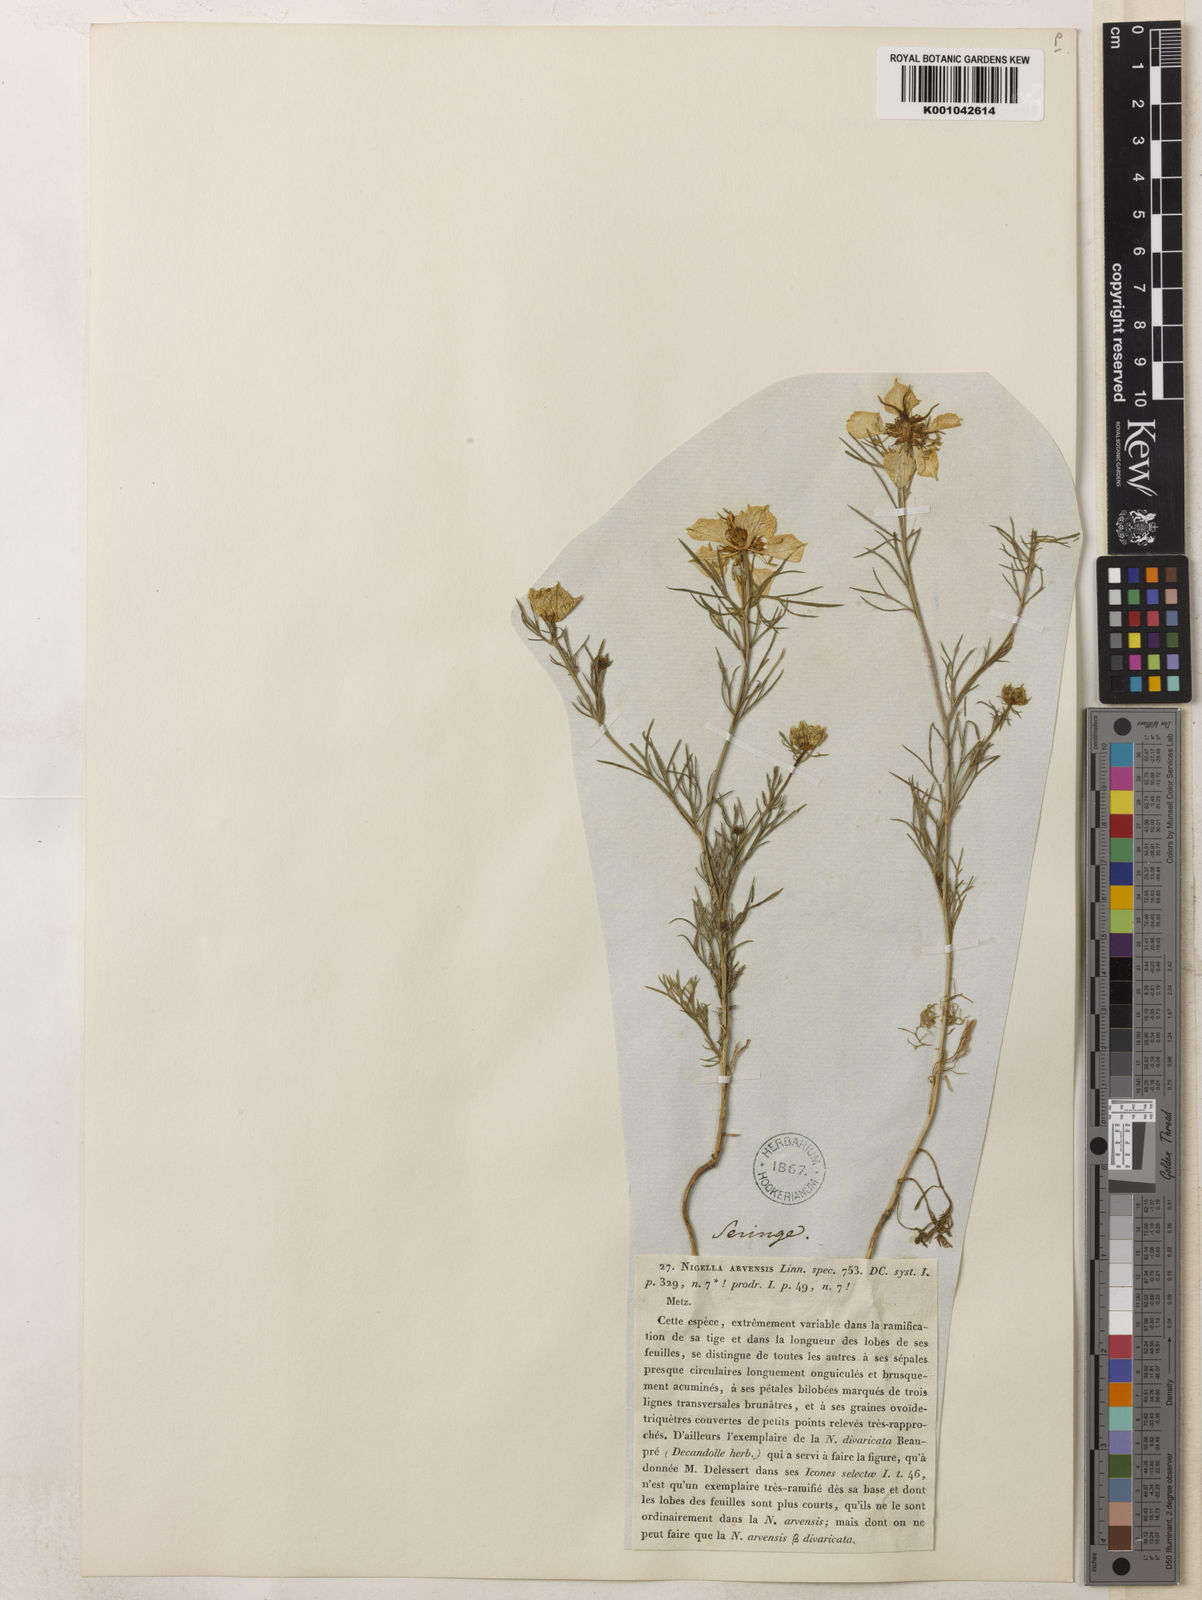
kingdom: Plantae
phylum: Tracheophyta
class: Magnoliopsida
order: Ranunculales
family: Ranunculaceae
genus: Nigella
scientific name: Nigella arvensis
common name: Wild fennel-flower
